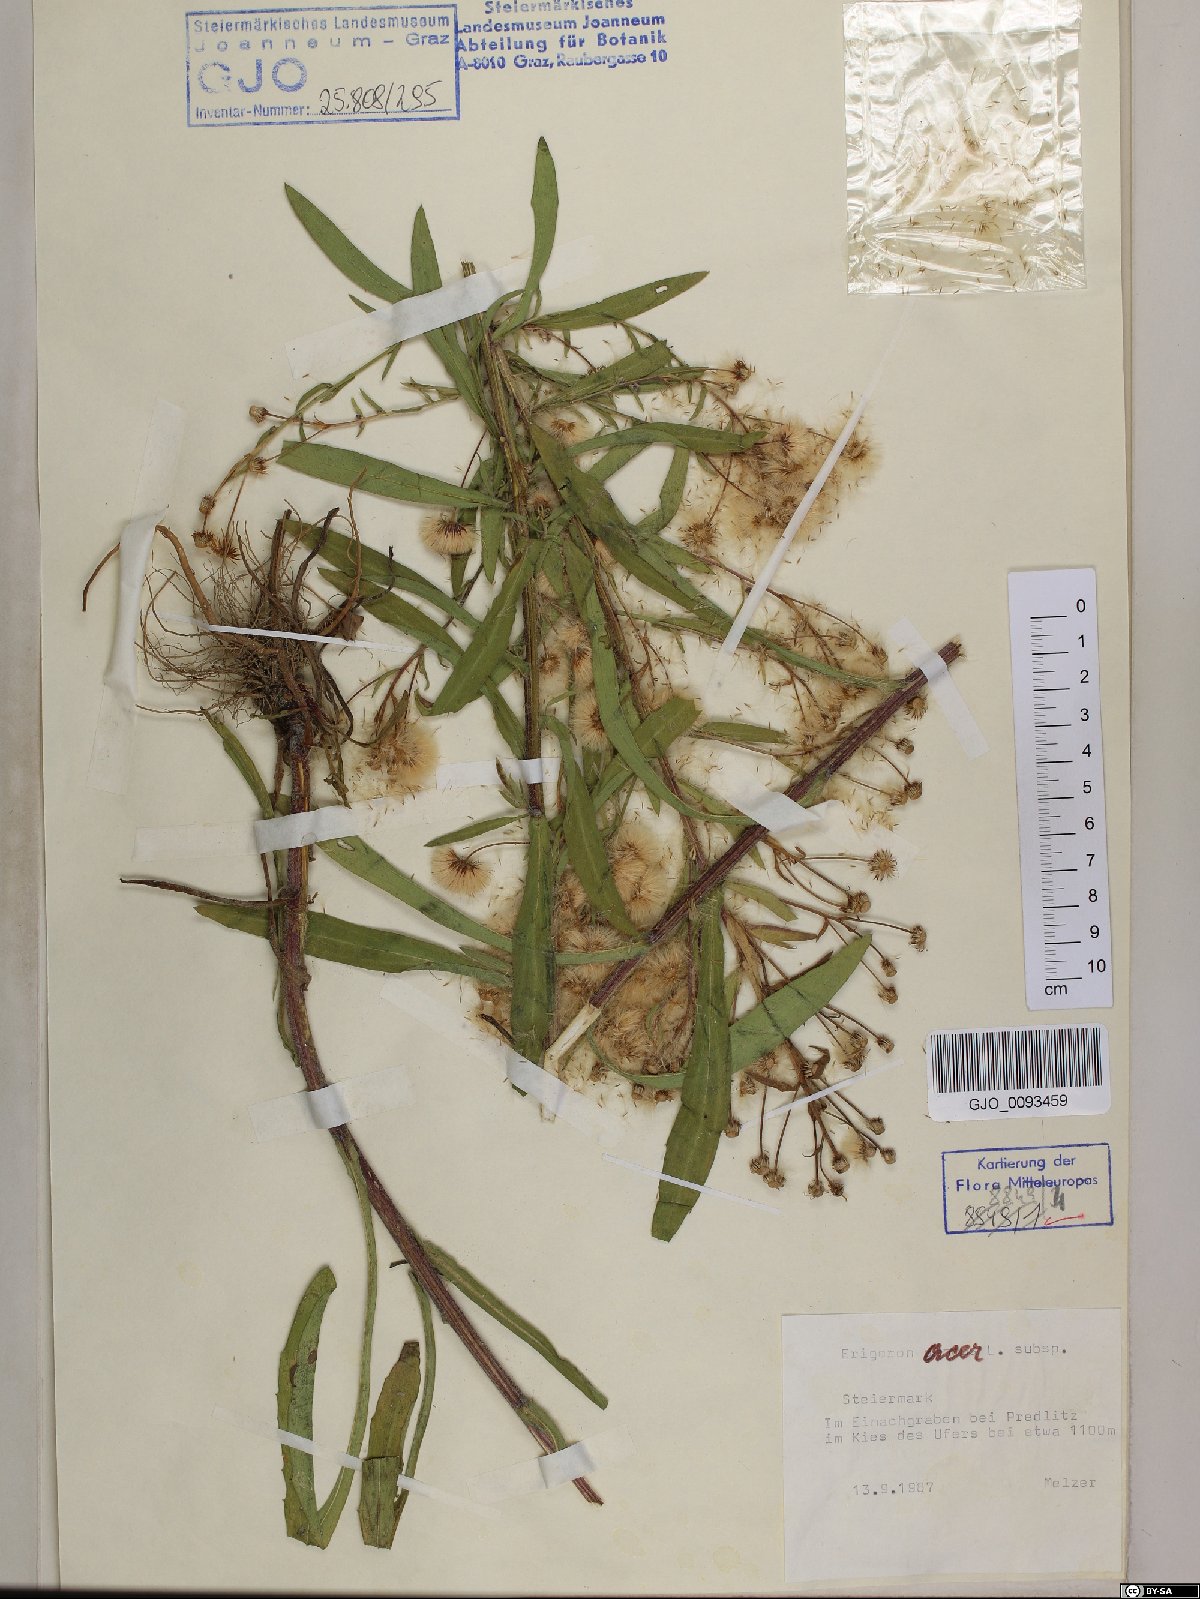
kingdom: Plantae
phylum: Tracheophyta
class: Magnoliopsida
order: Asterales
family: Asteraceae
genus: Erigeron
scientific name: Erigeron acris
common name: Blue fleabane
